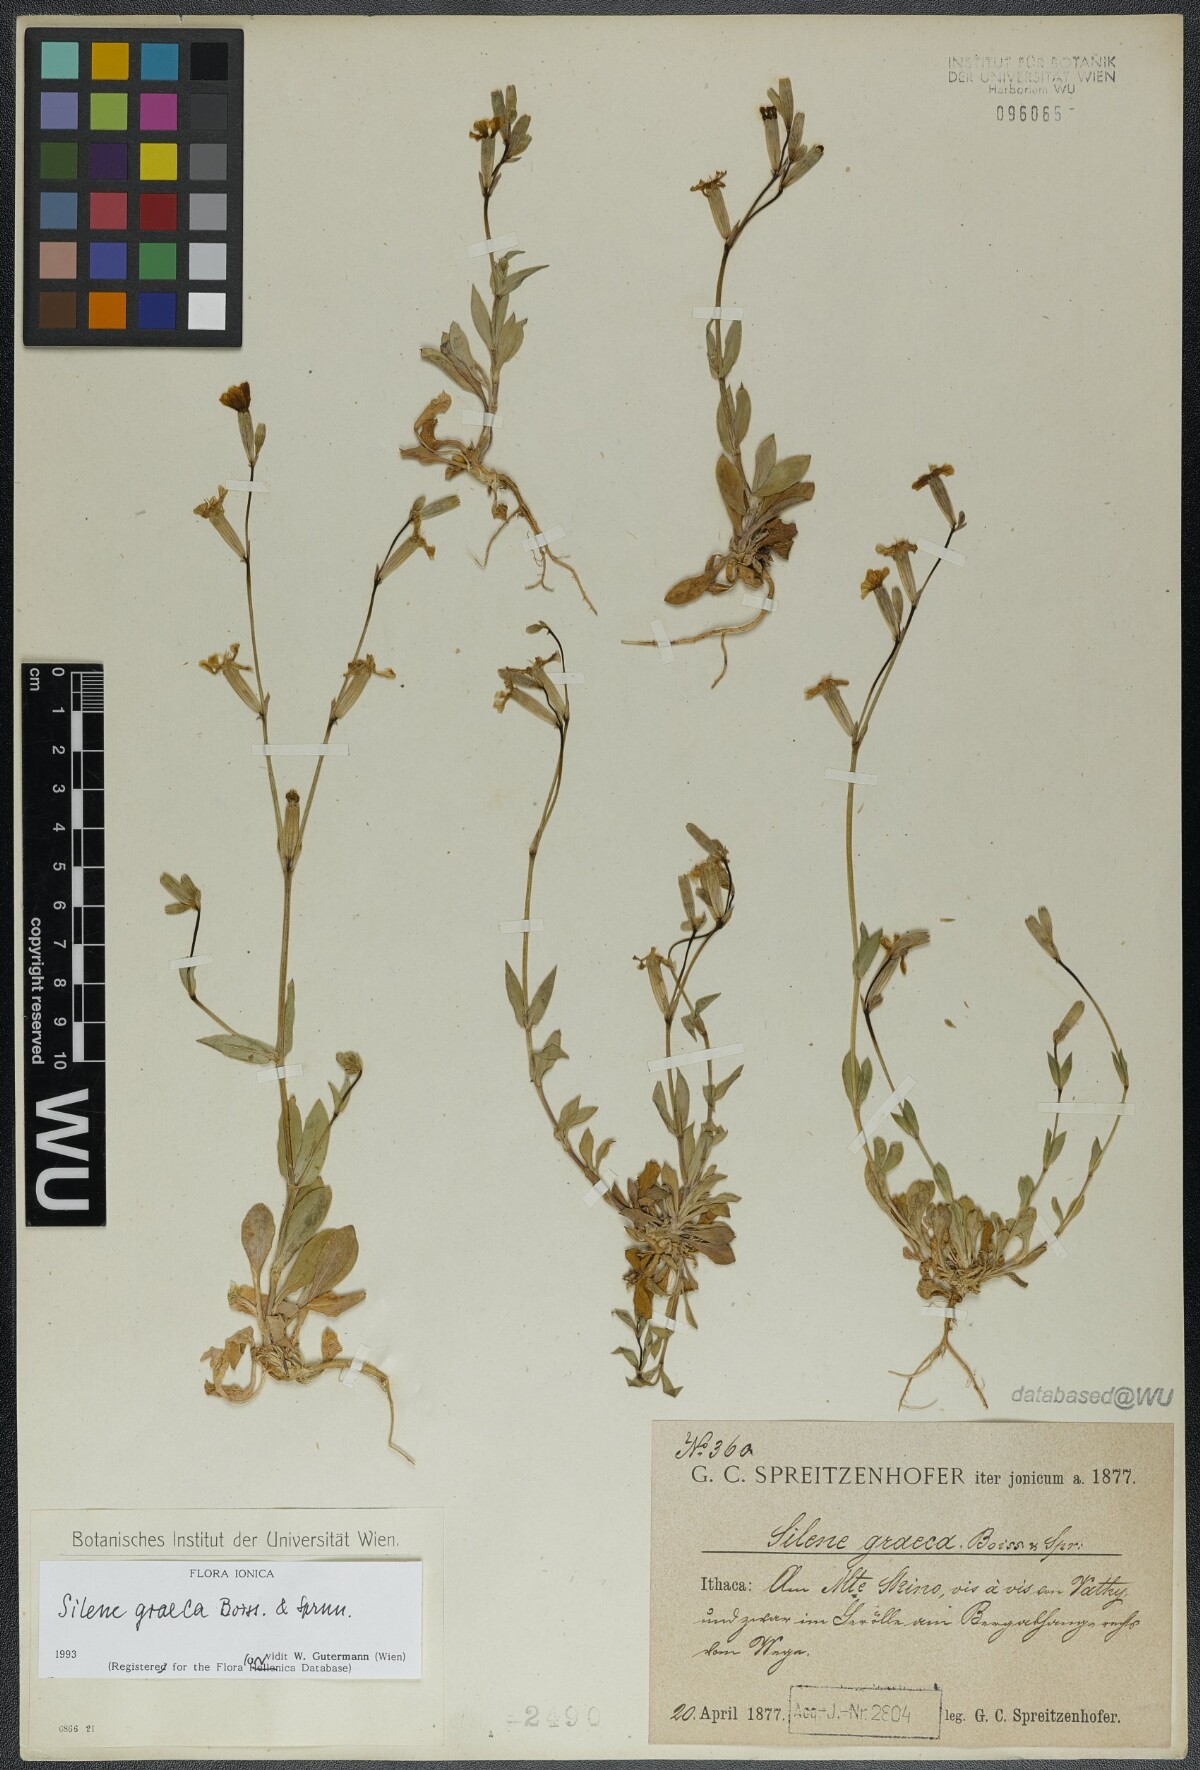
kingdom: Plantae
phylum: Tracheophyta
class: Magnoliopsida
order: Caryophyllales
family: Caryophyllaceae
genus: Silene
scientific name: Silene graeca
